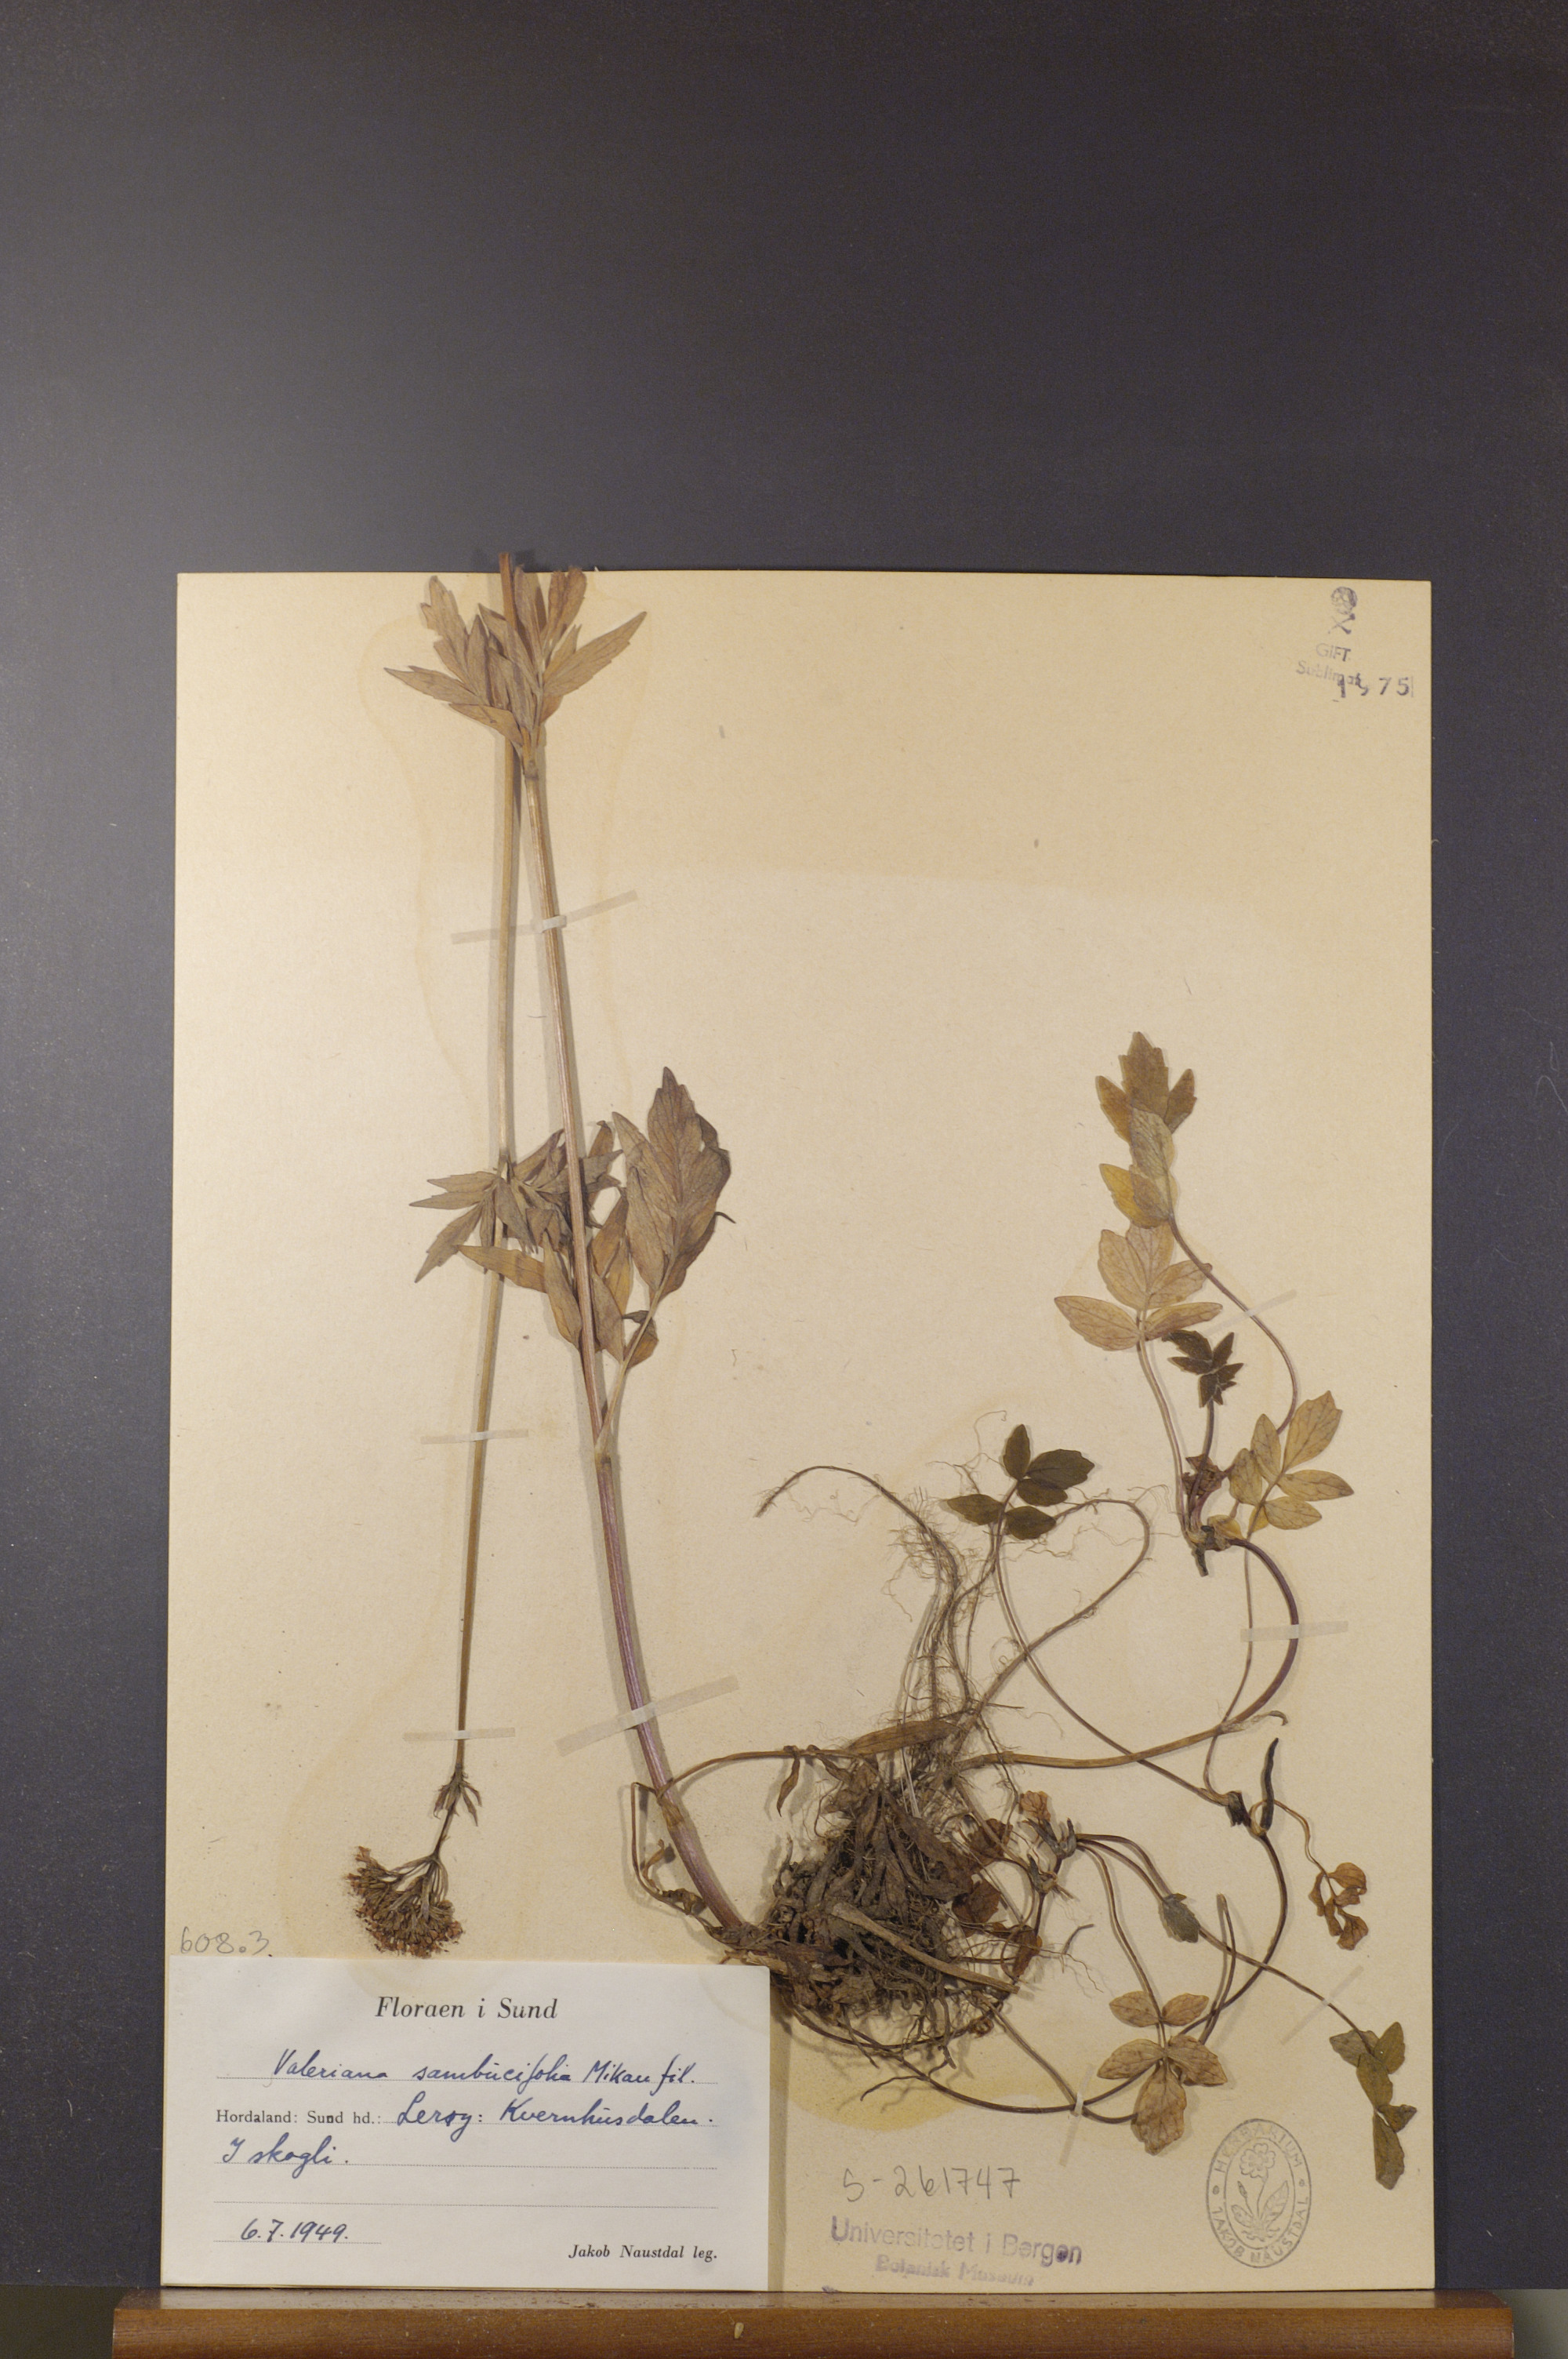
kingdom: Plantae
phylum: Tracheophyta
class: Magnoliopsida
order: Dipsacales
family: Caprifoliaceae
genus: Valeriana
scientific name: Valeriana excelsa
